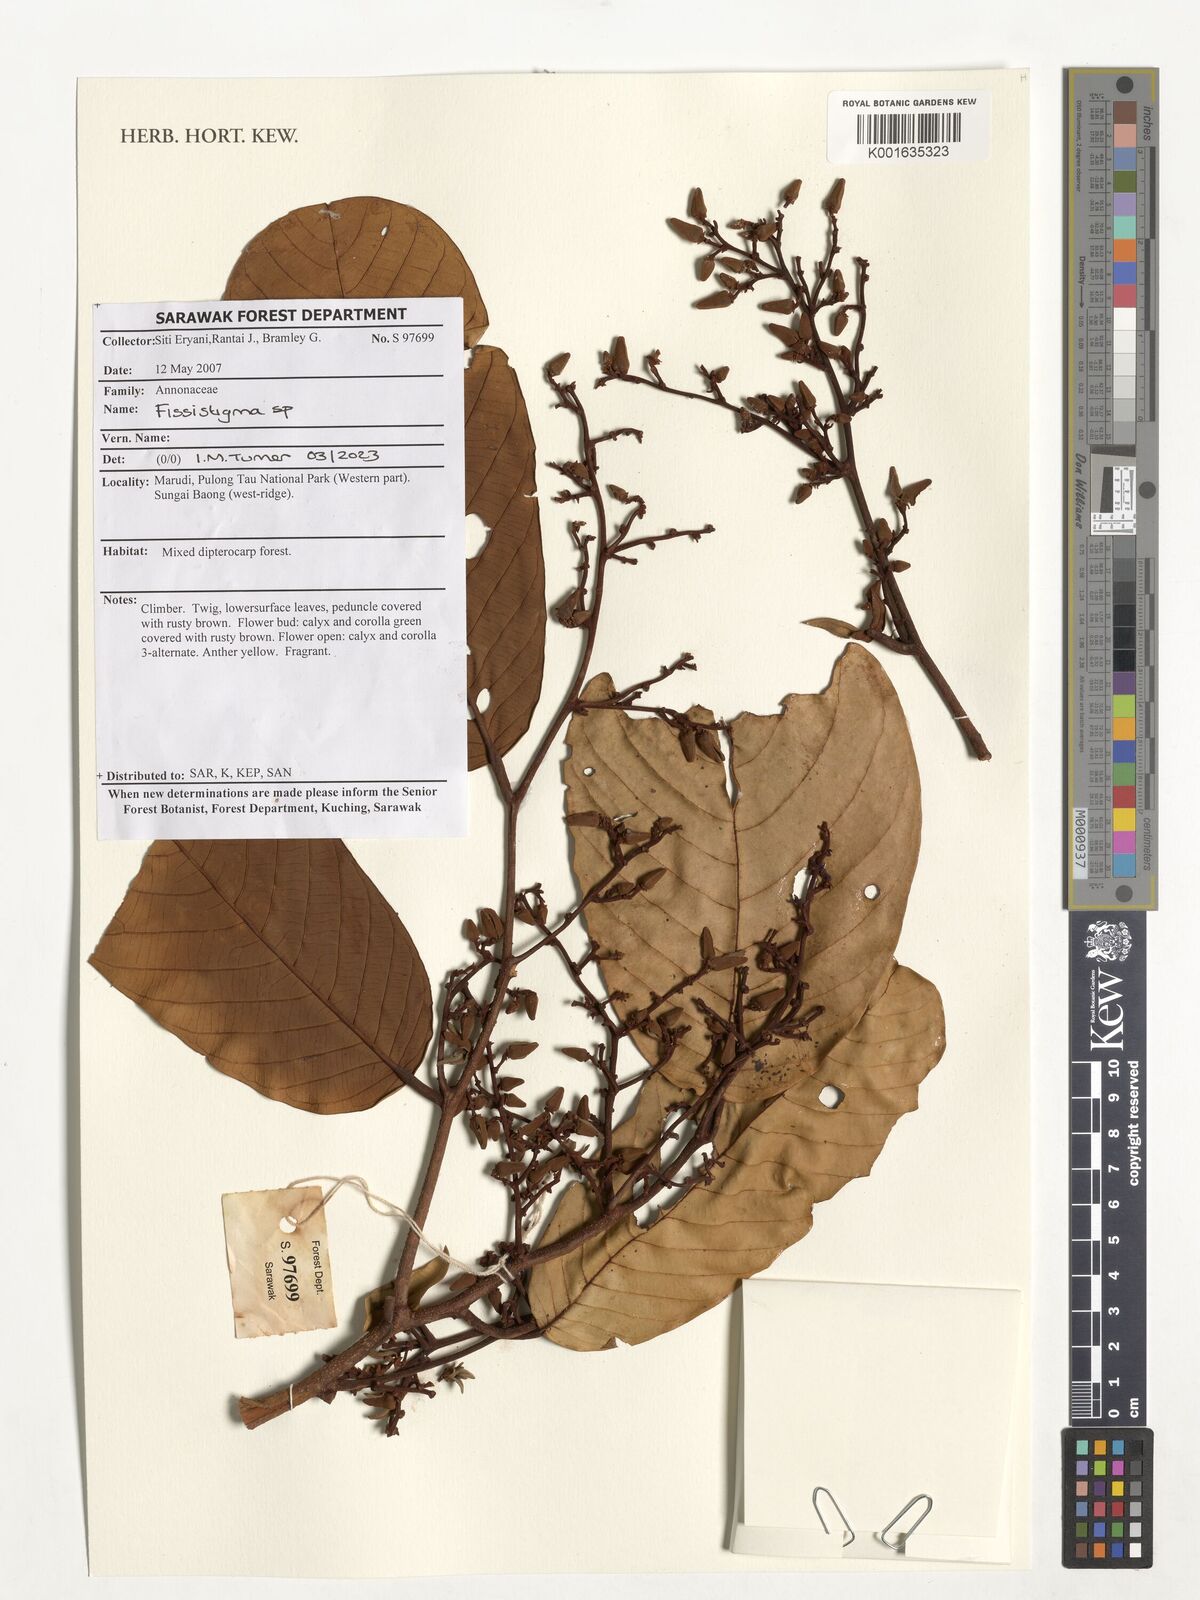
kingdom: Plantae
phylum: Tracheophyta
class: Magnoliopsida
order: Magnoliales
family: Annonaceae
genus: Fissistigma
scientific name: Fissistigma
